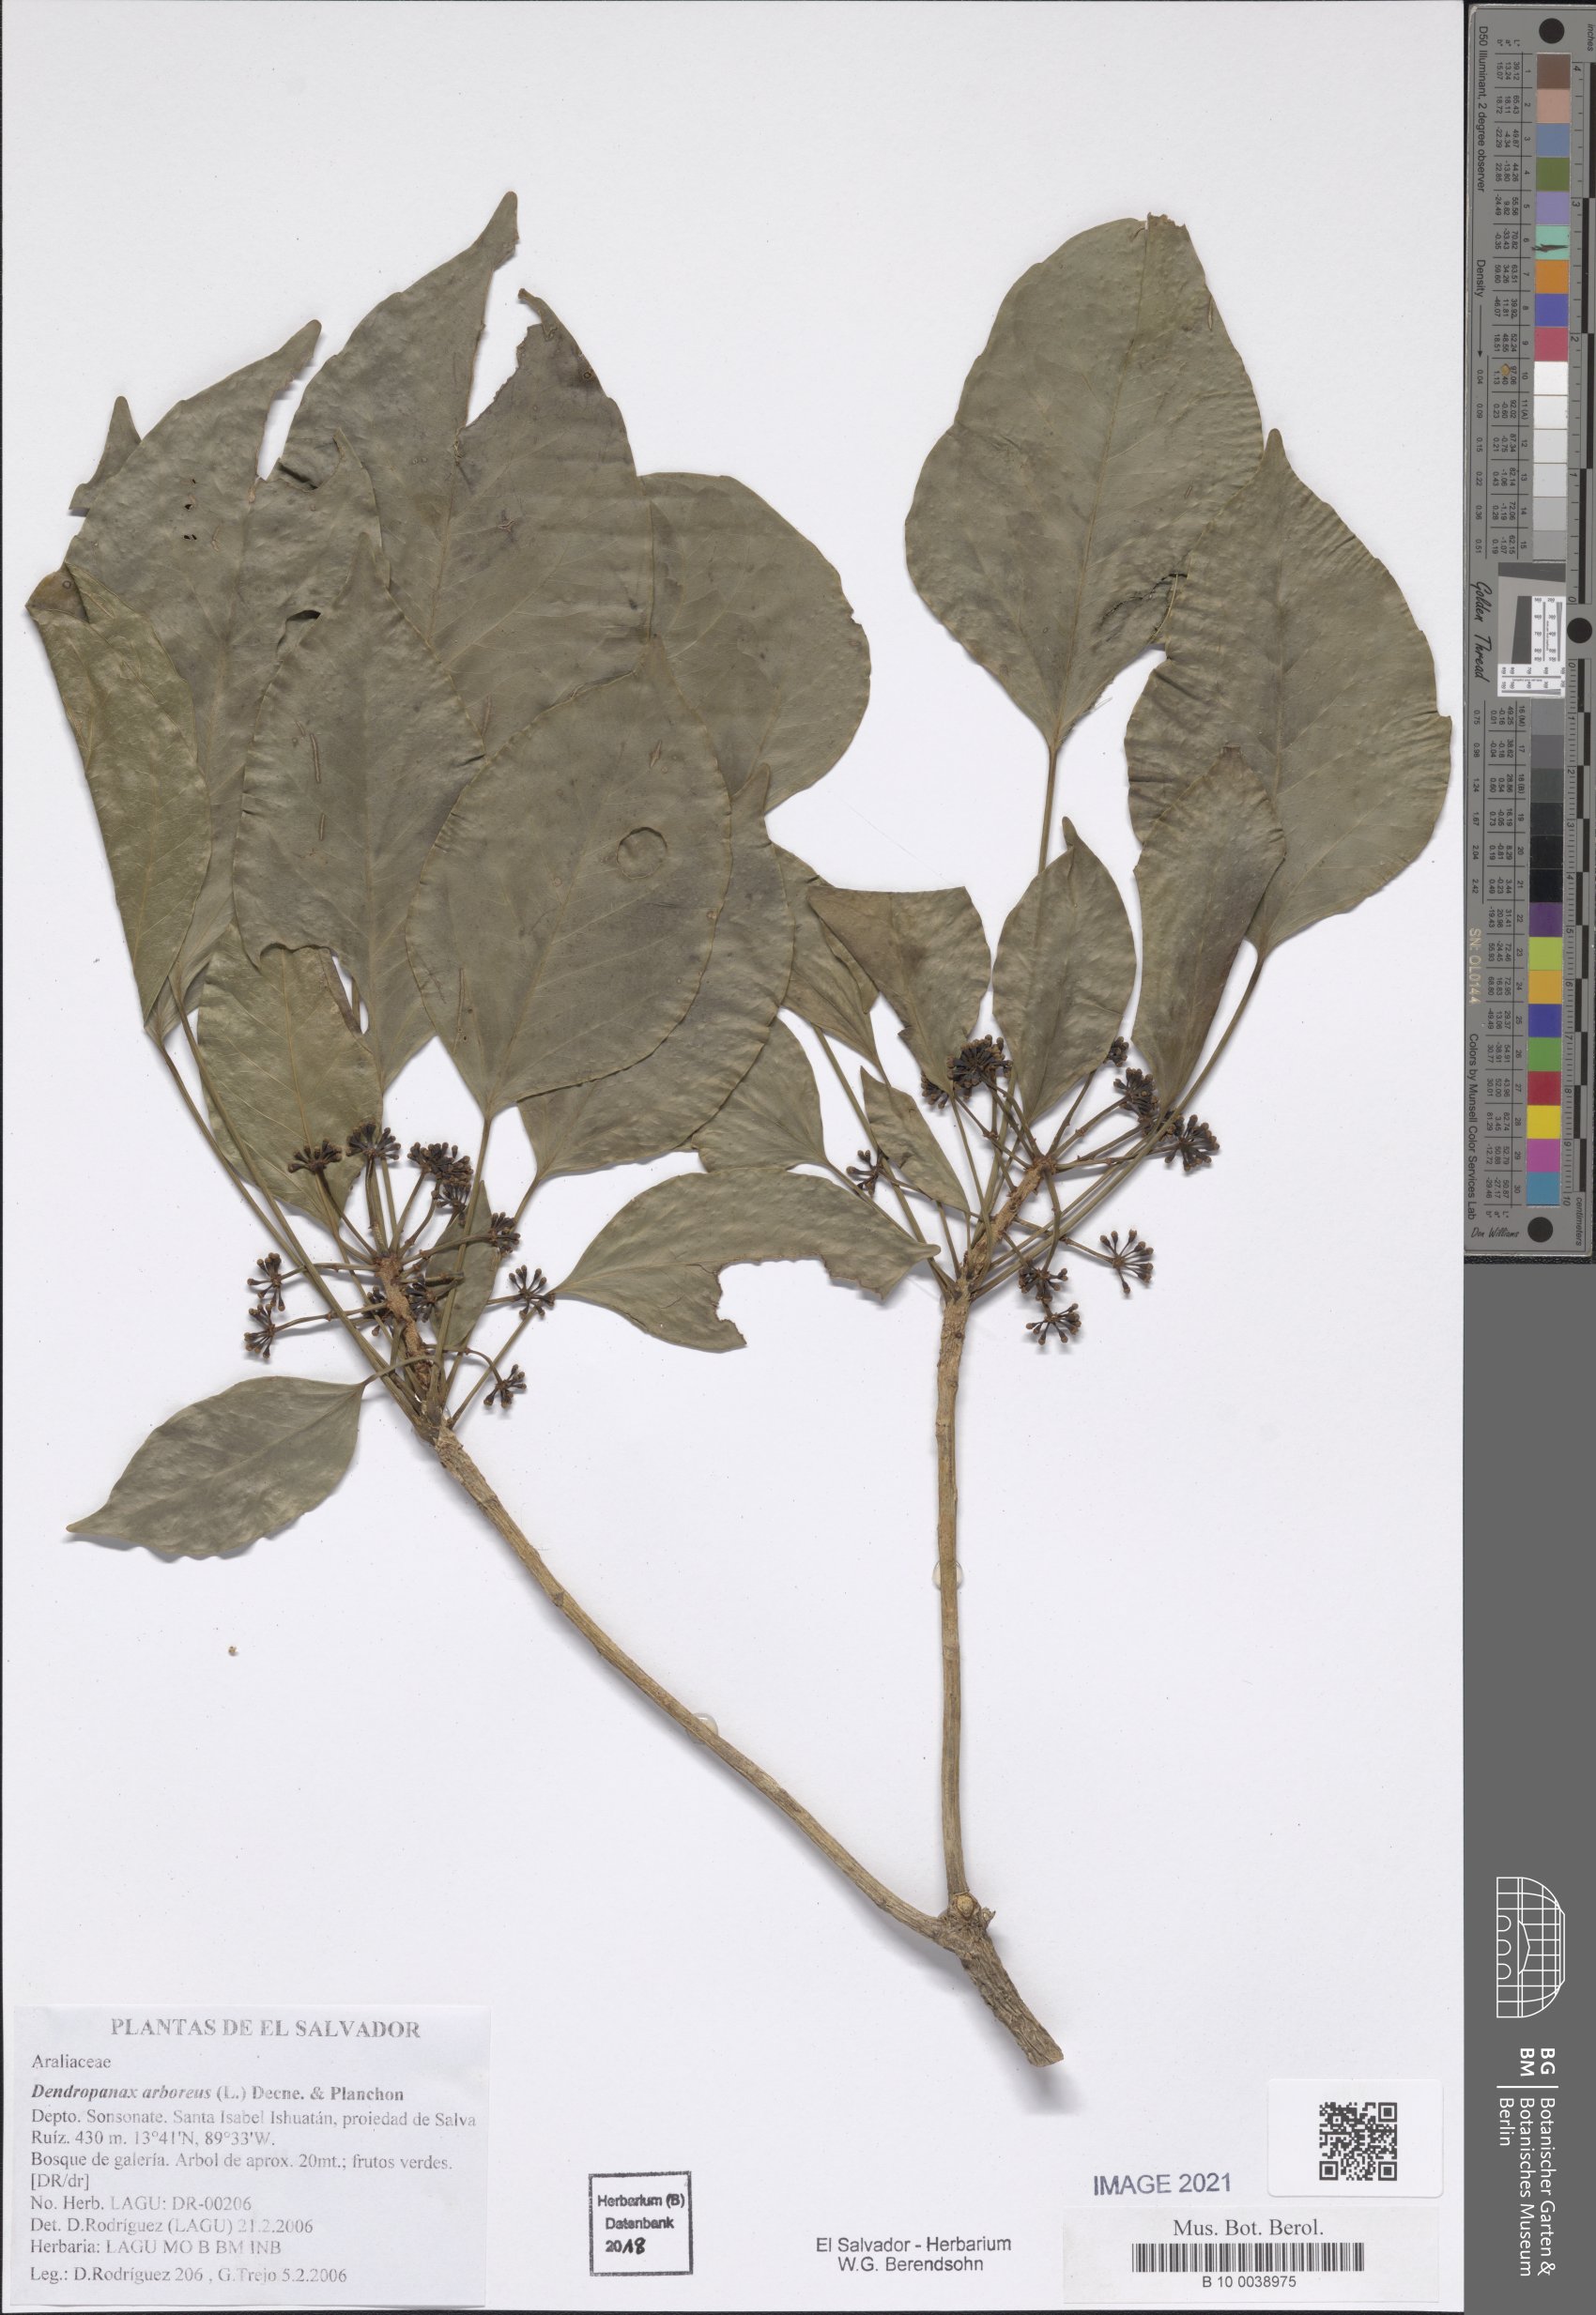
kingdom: Plantae
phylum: Tracheophyta
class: Magnoliopsida
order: Apiales
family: Araliaceae
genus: Dendropanax
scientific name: Dendropanax arboreus
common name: Potato-wood
